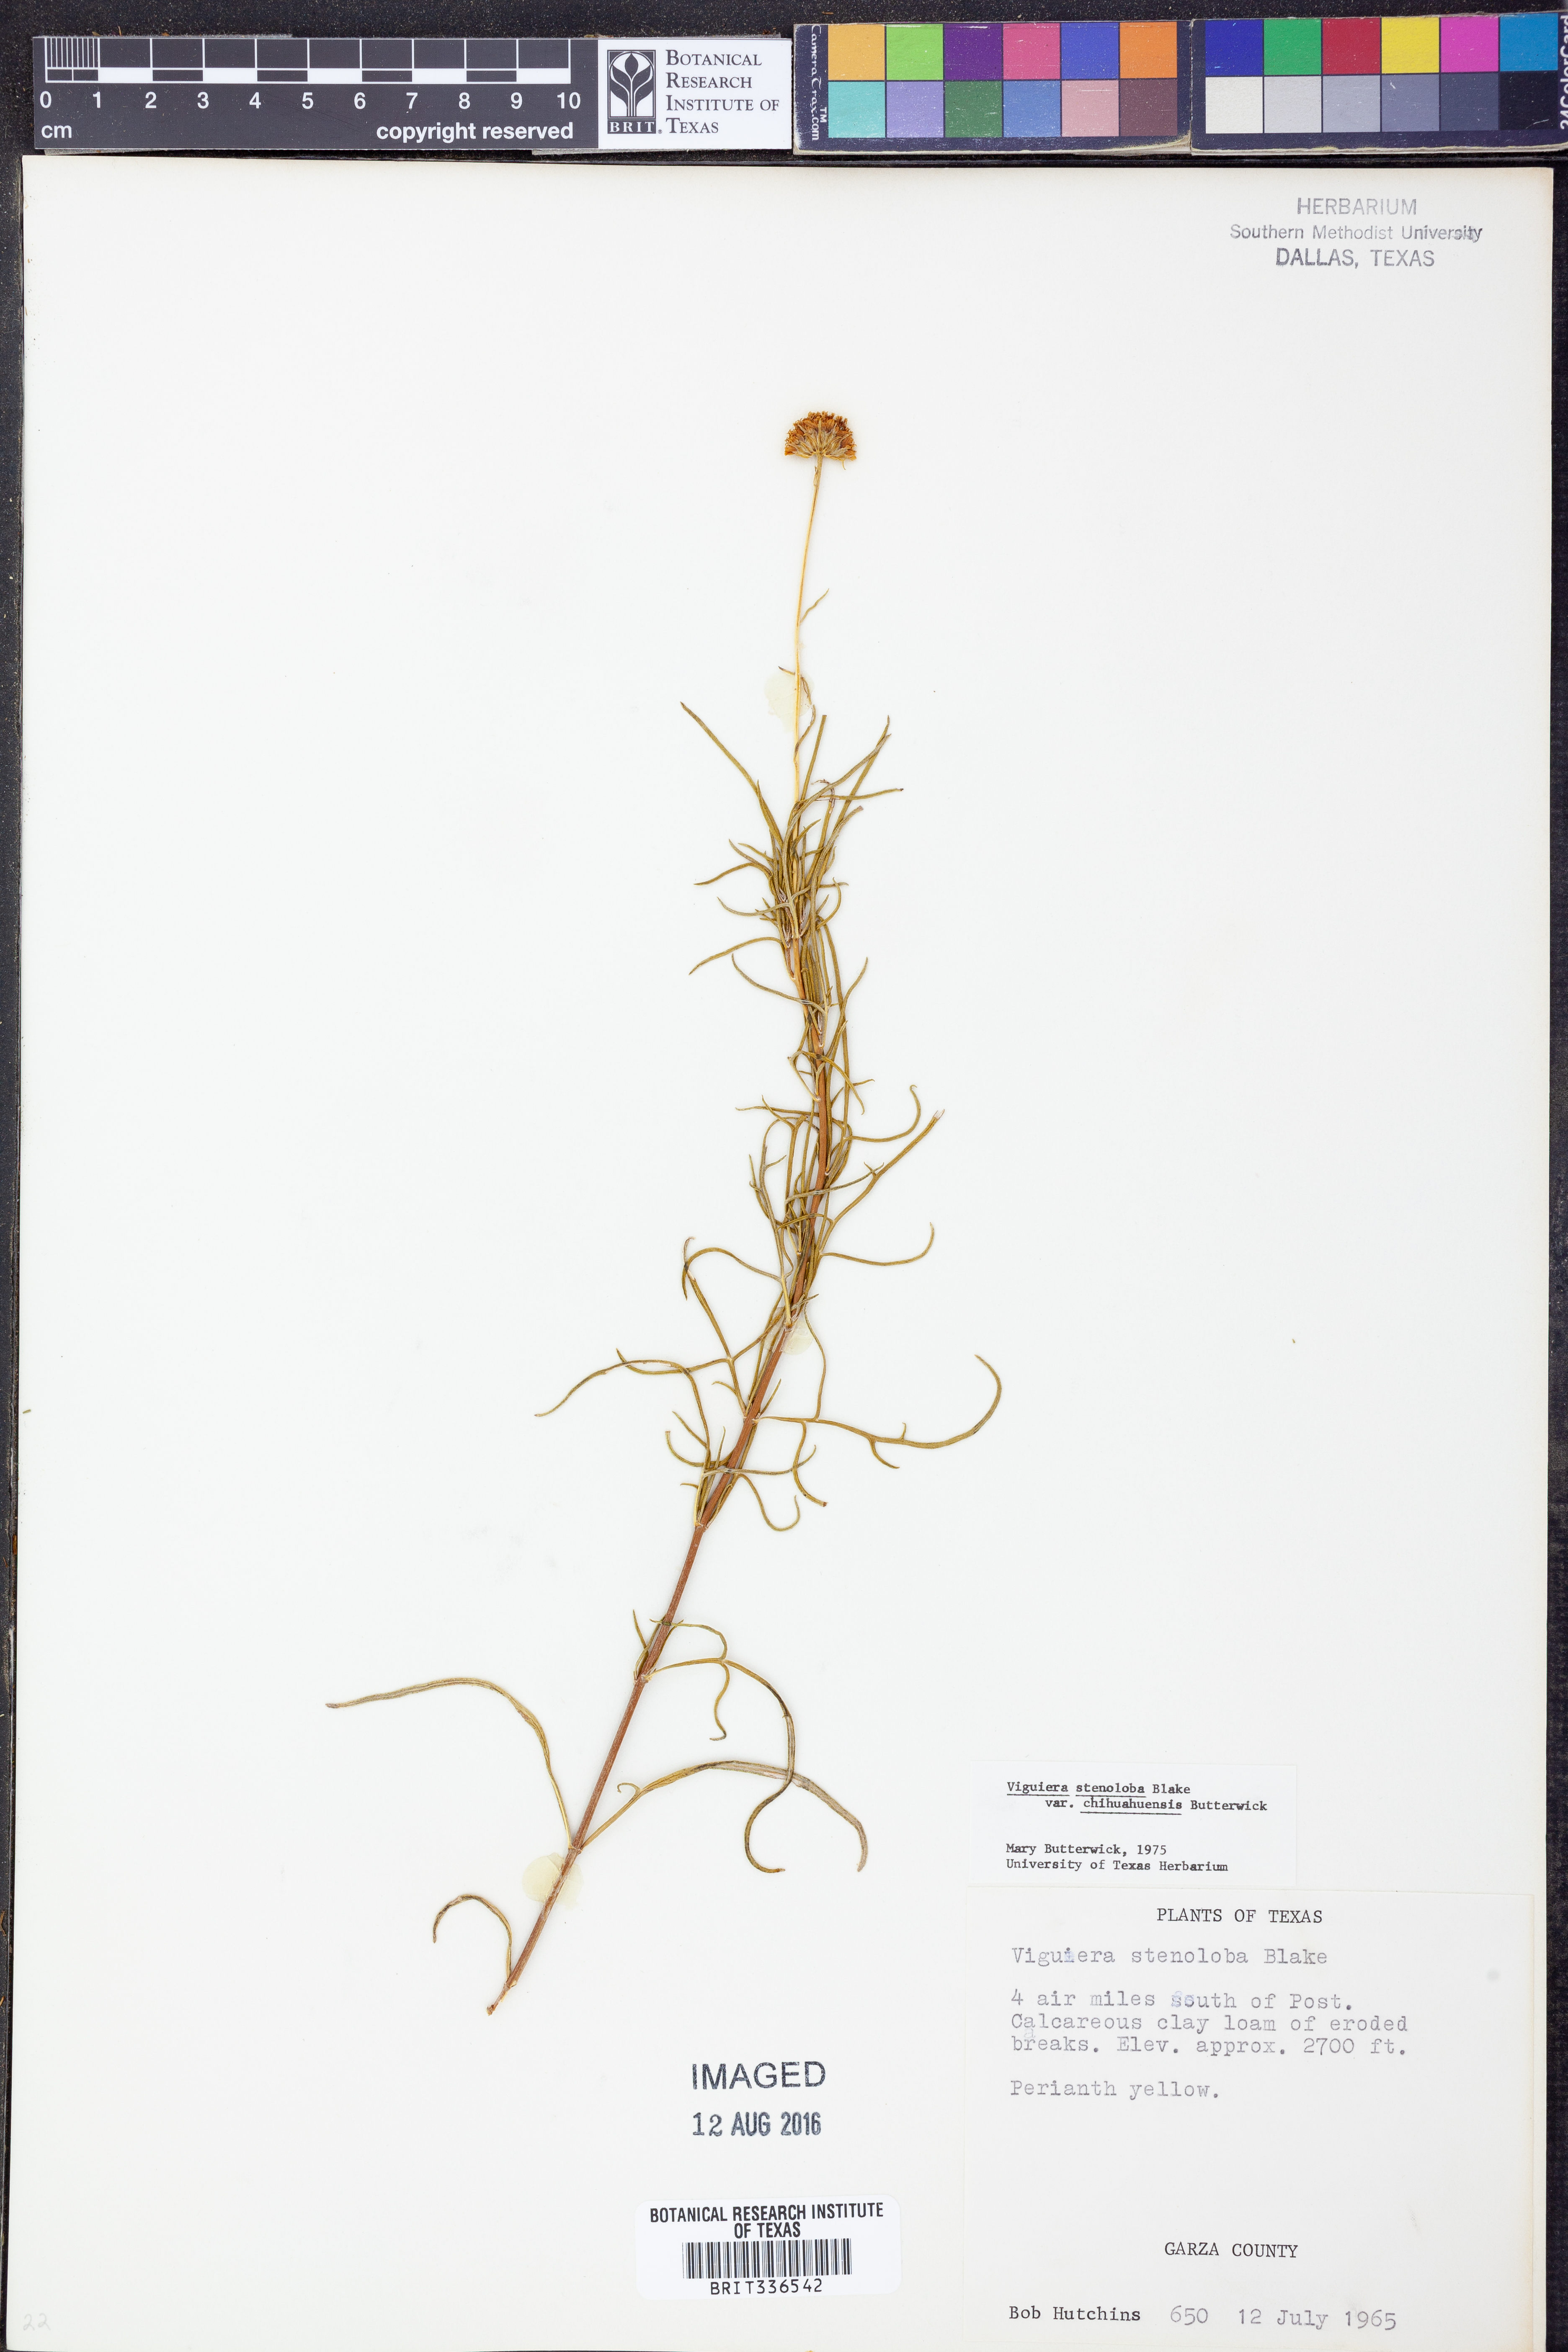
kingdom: Plantae
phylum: Tracheophyta
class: Magnoliopsida
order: Asterales
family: Asteraceae
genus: Sidneya
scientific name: Sidneya tenuifolia
